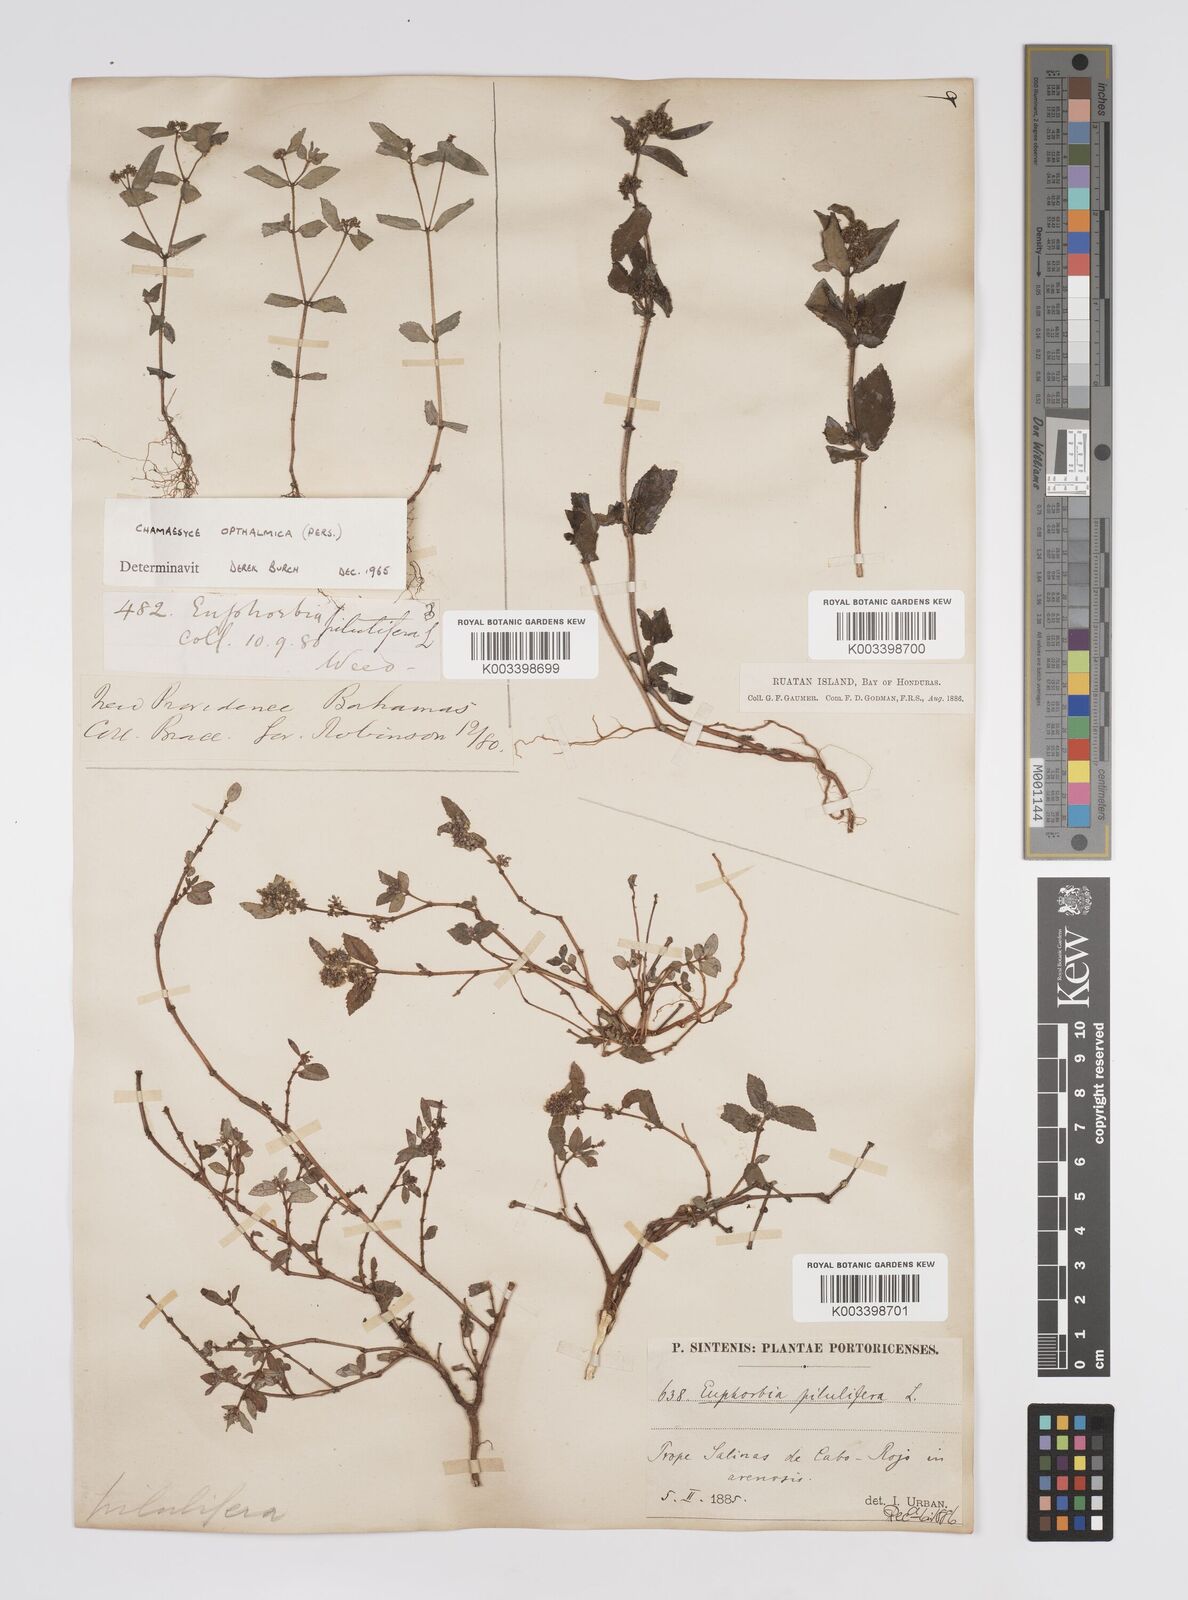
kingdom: Plantae
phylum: Tracheophyta
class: Magnoliopsida
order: Malpighiales
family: Euphorbiaceae
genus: Euphorbia
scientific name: Euphorbia hirta
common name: Pillpod sandmat
